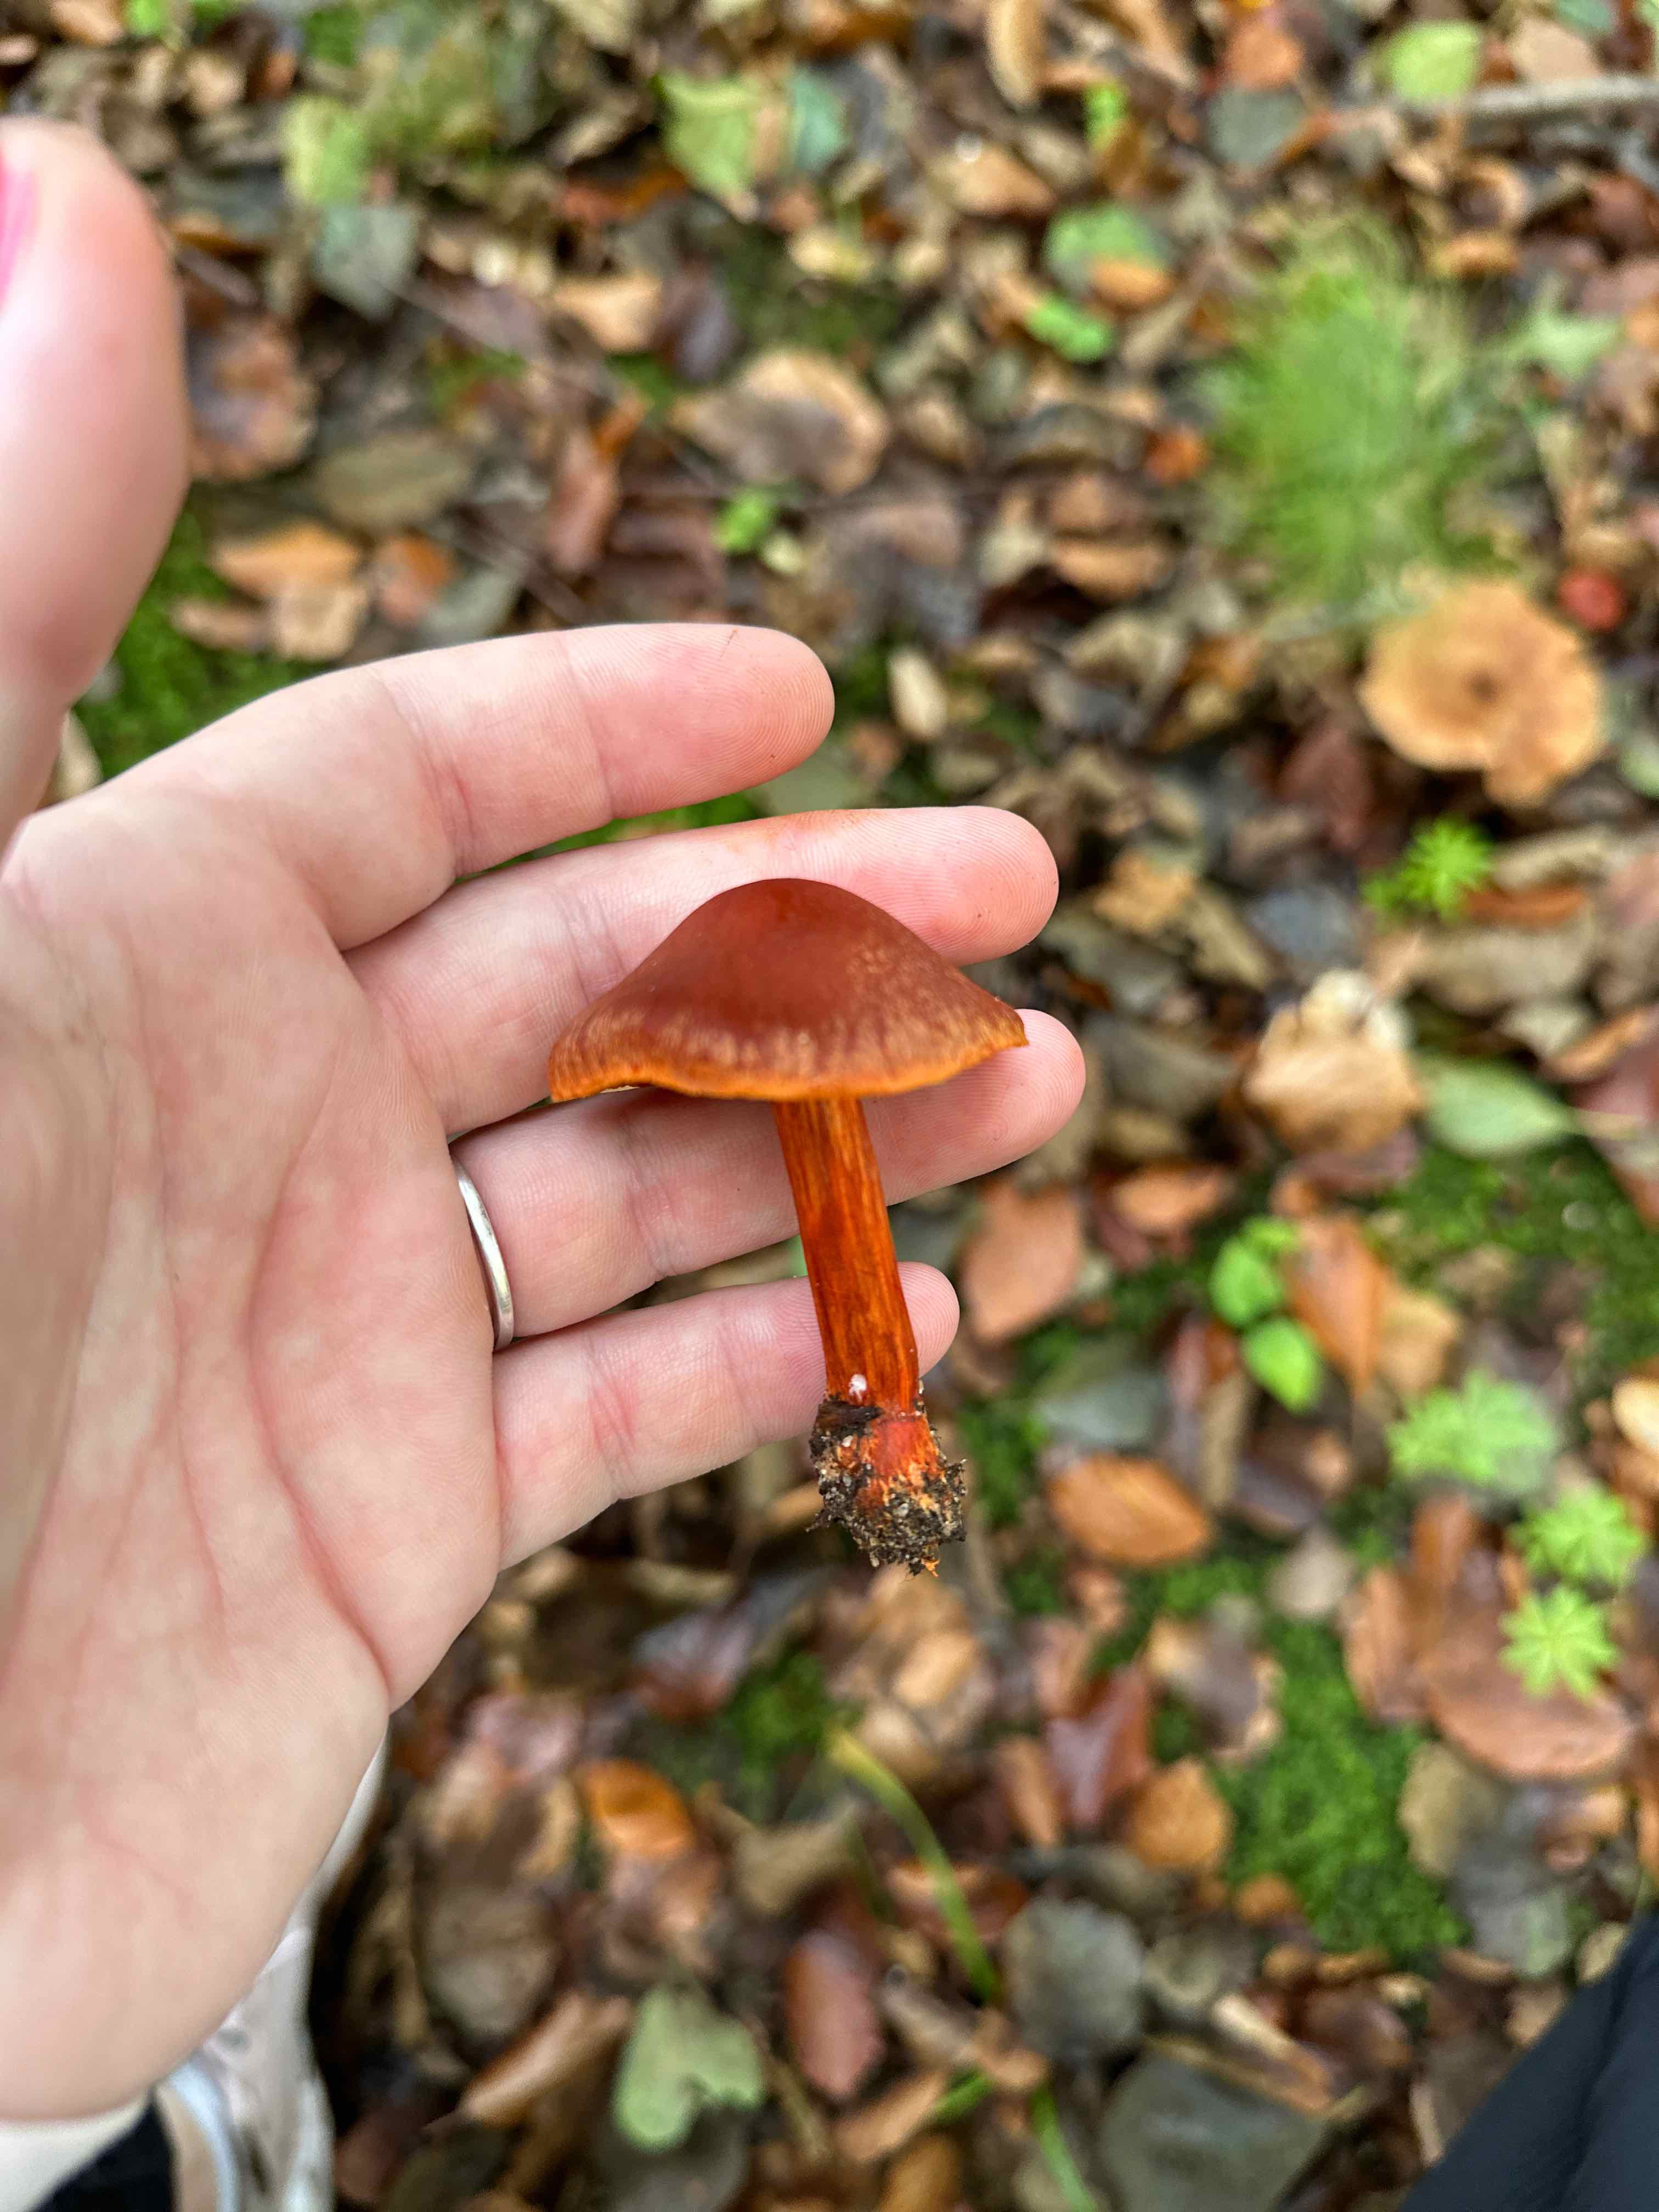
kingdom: Fungi
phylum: Basidiomycota
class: Agaricomycetes
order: Agaricales
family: Cortinariaceae
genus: Cortinarius
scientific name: Cortinarius cinnabarinus
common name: cinnober-slørhat
